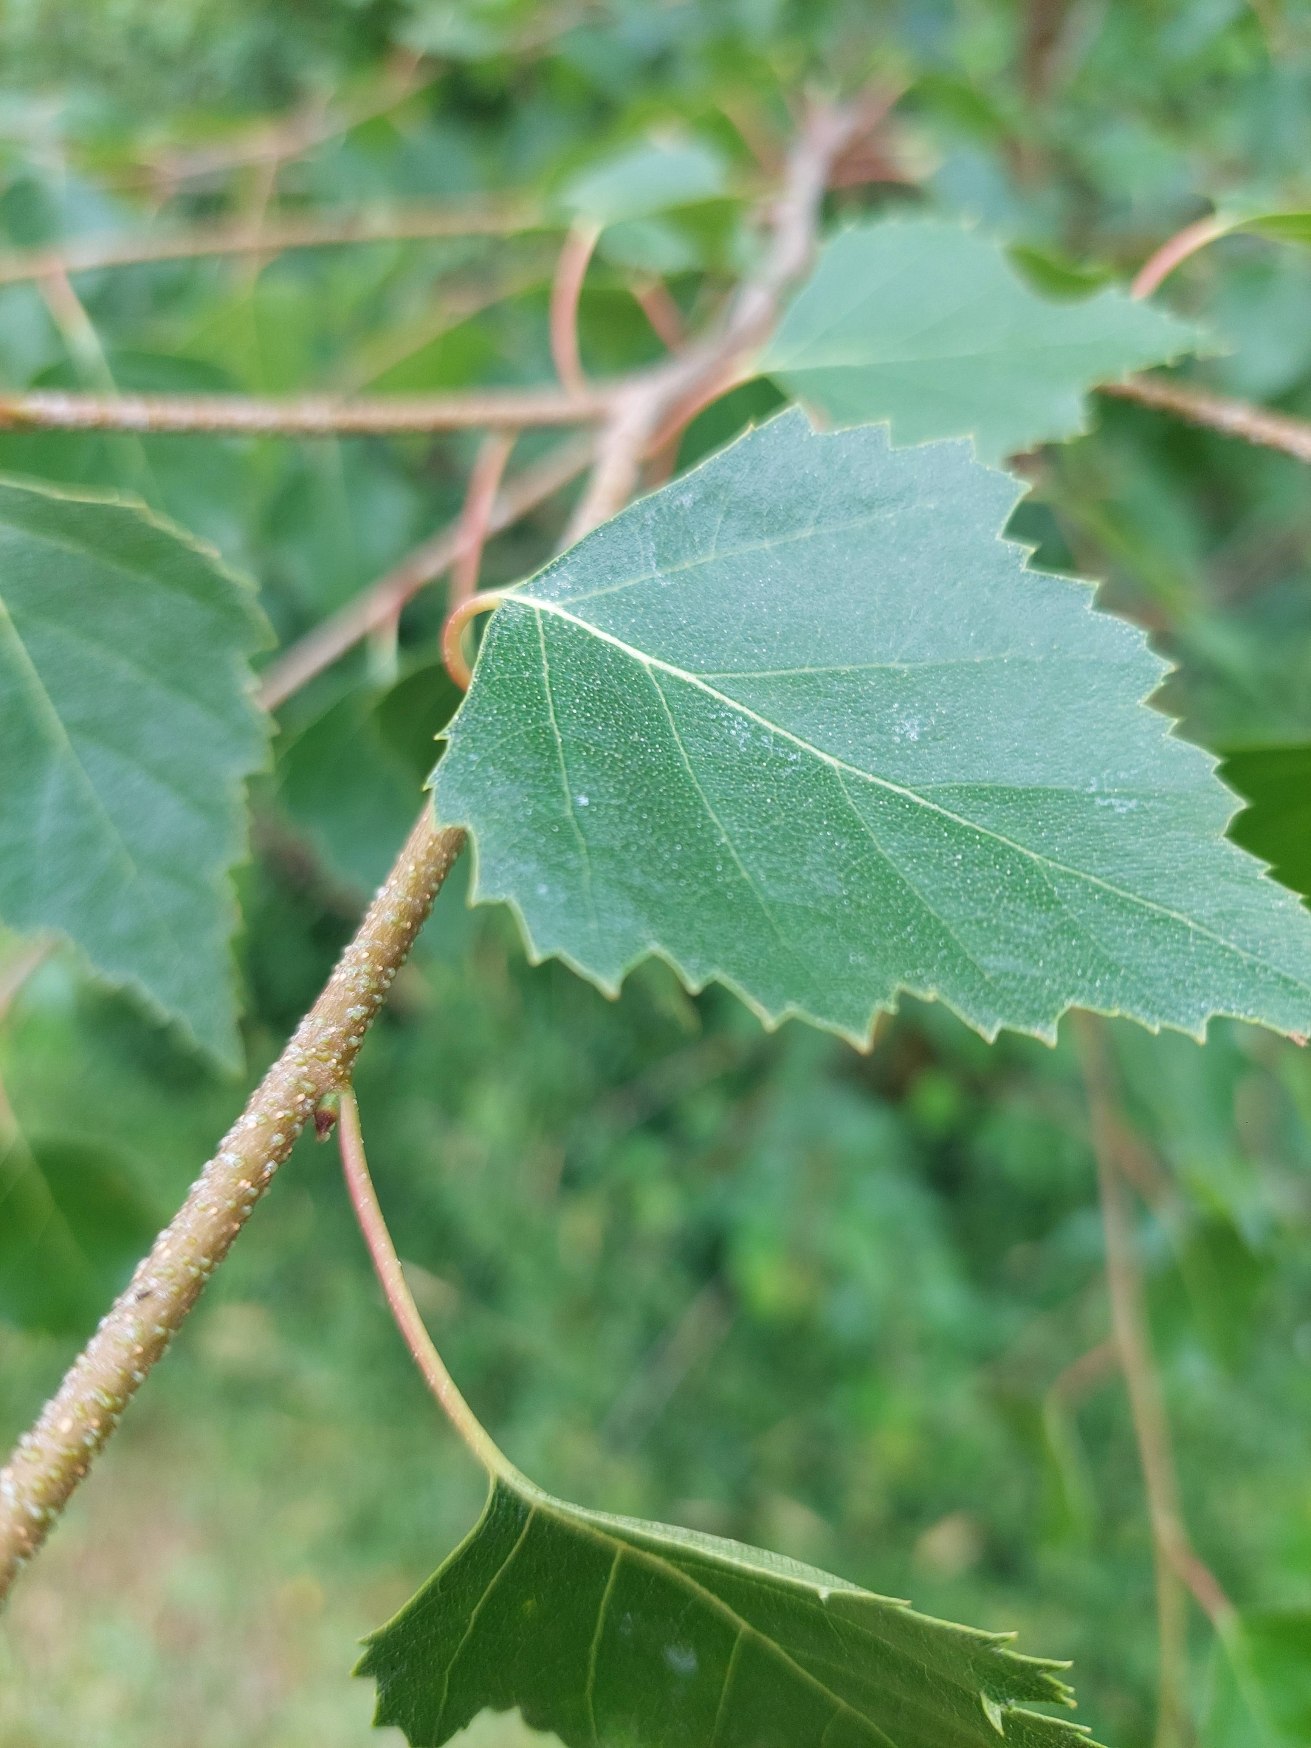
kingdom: Plantae
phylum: Tracheophyta
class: Magnoliopsida
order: Fagales
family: Betulaceae
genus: Betula
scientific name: Betula pendula
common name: Vorte-birk
